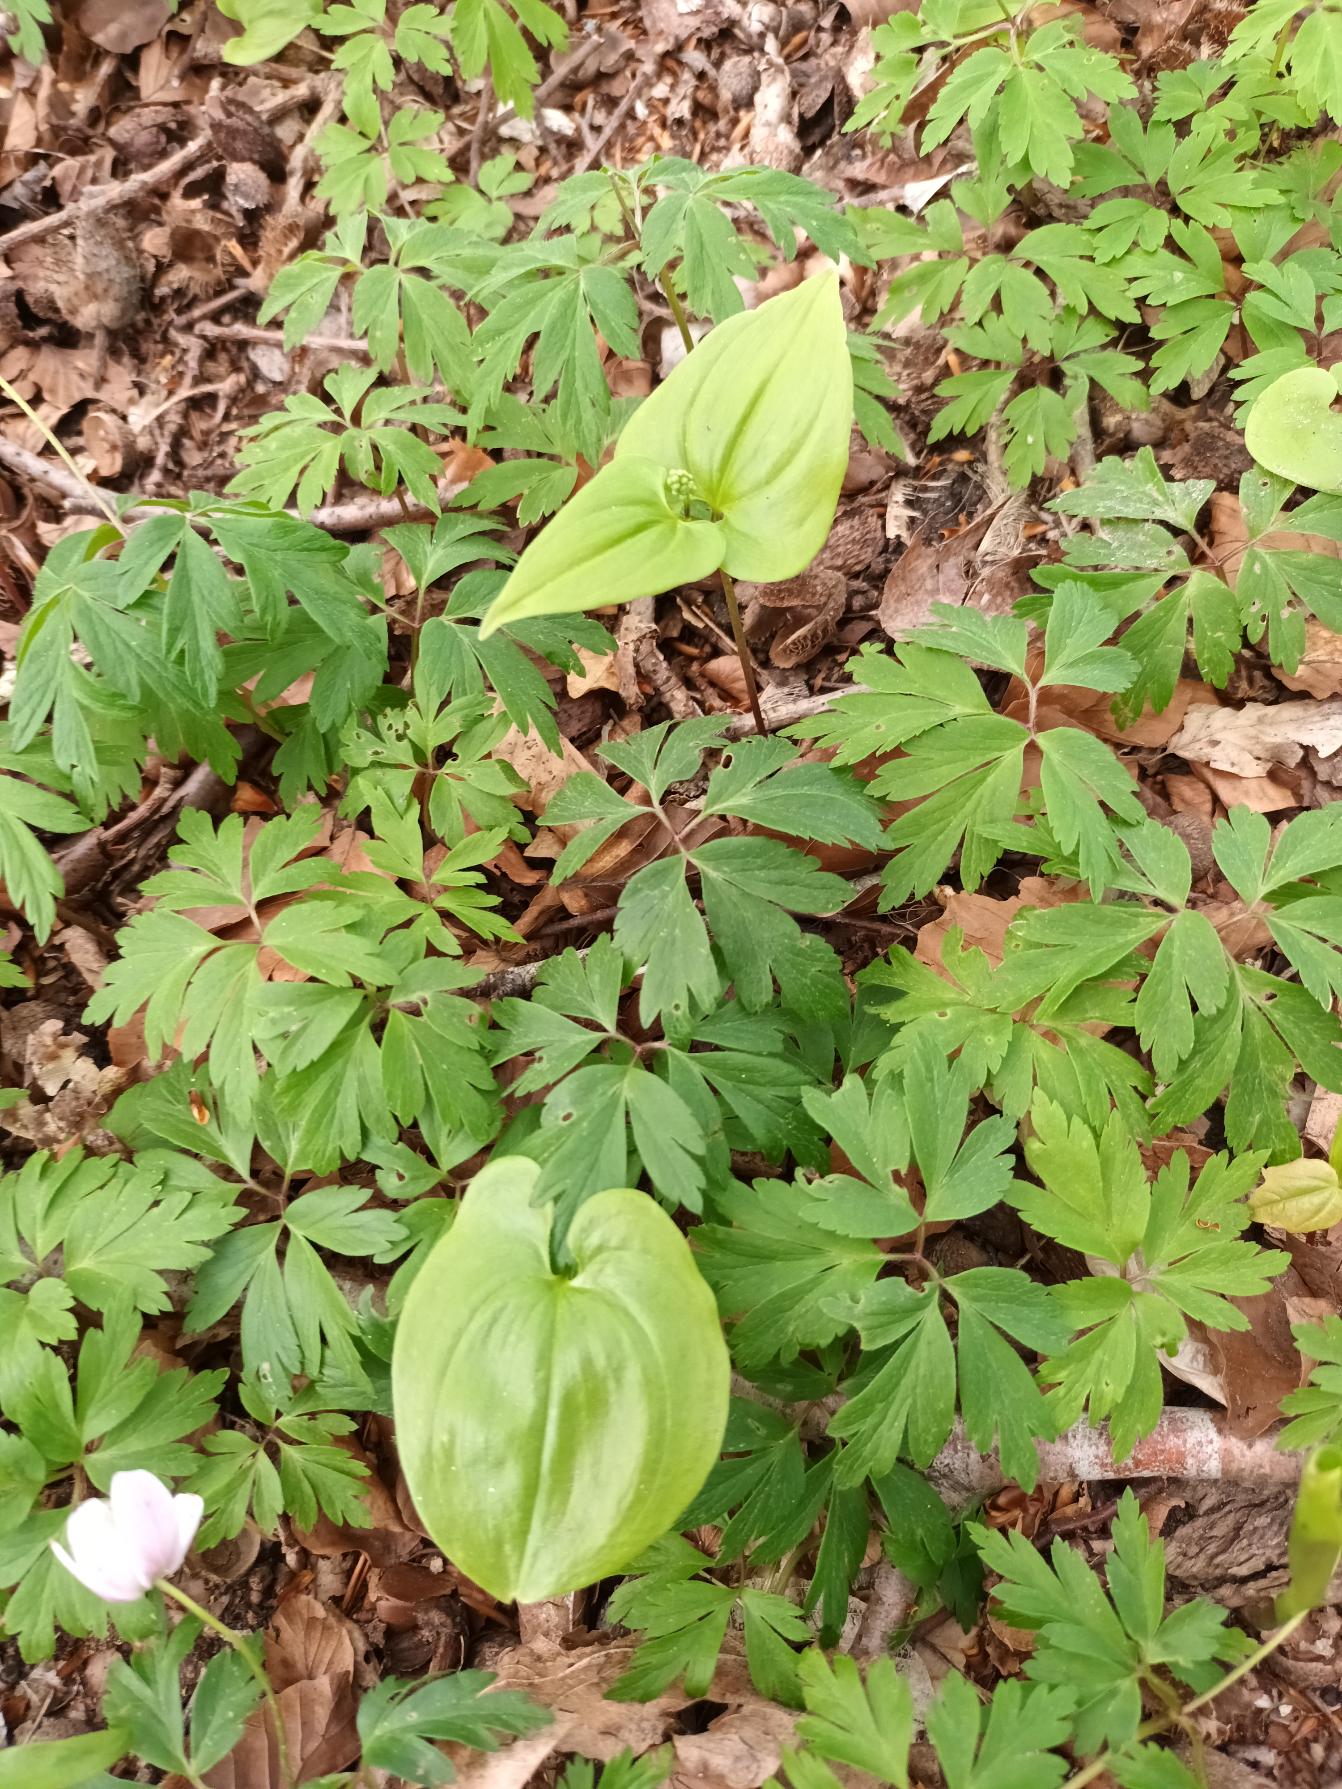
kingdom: Plantae
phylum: Tracheophyta
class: Liliopsida
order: Asparagales
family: Asparagaceae
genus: Maianthemum
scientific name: Maianthemum bifolium
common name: Majblomst
